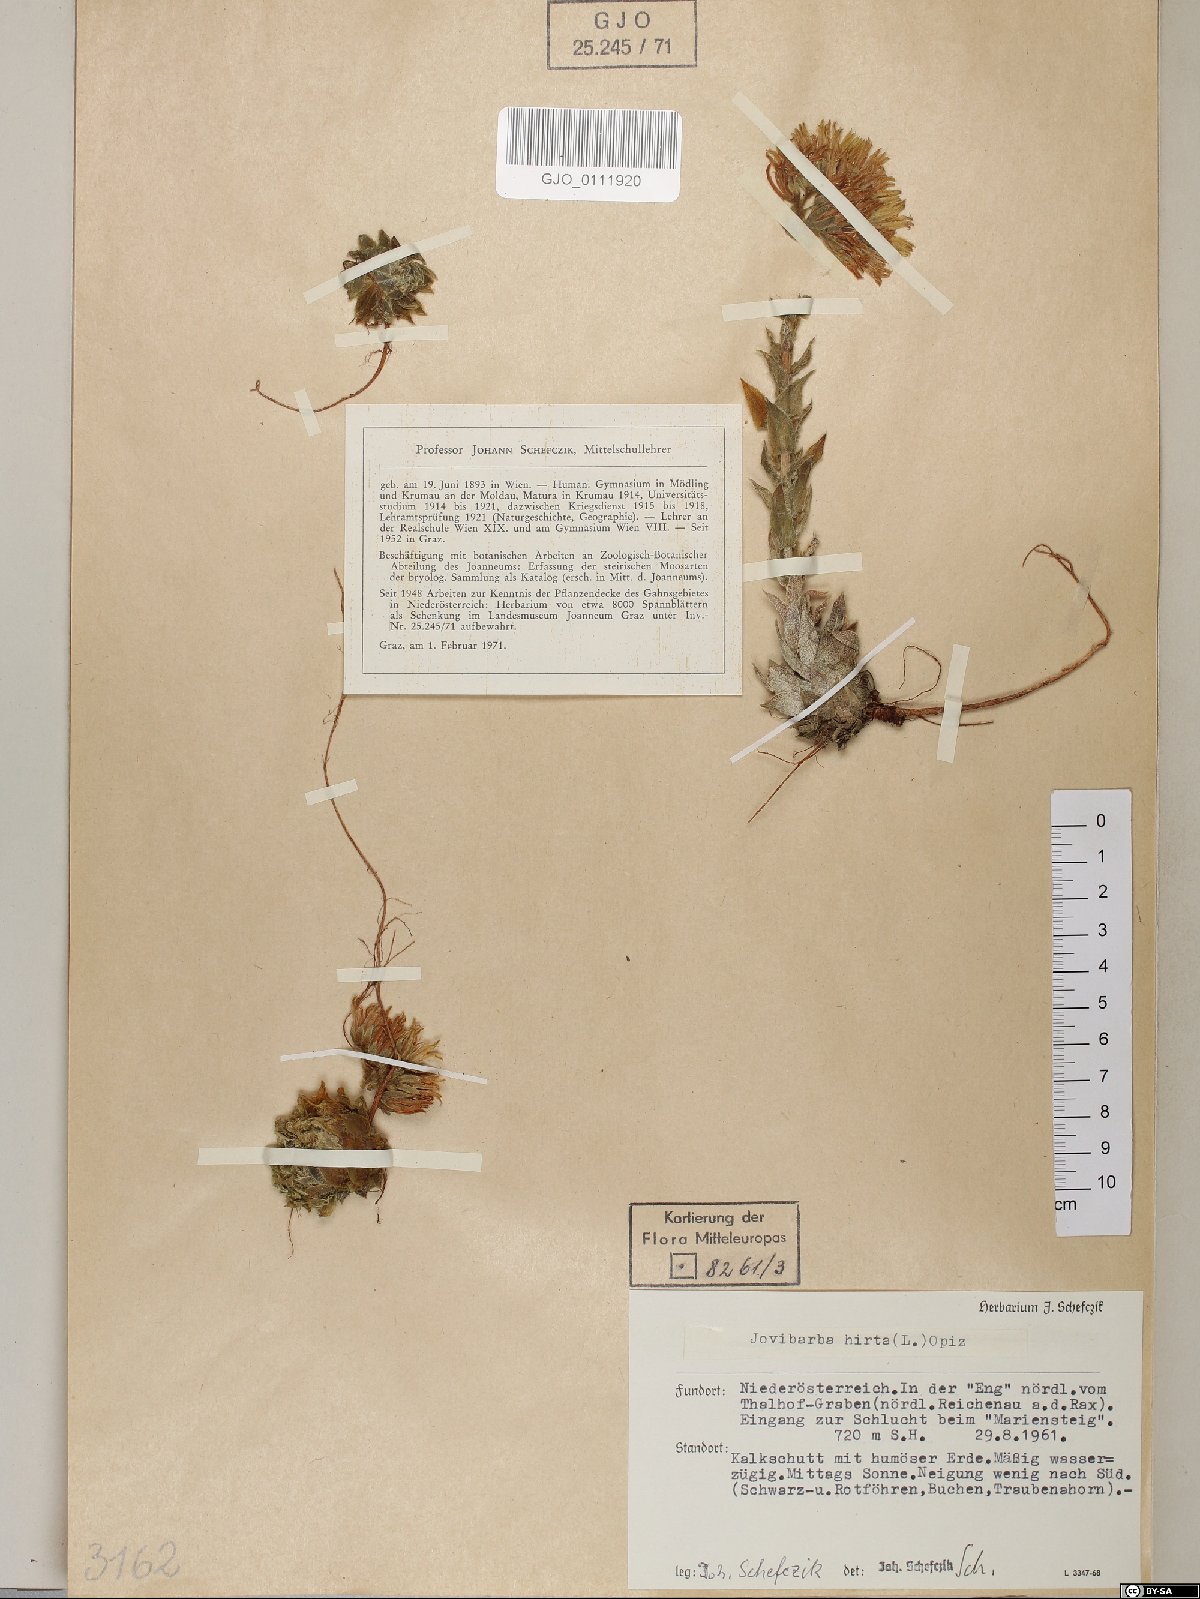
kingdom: Plantae
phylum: Tracheophyta
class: Magnoliopsida
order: Saxifragales
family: Crassulaceae
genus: Sempervivum
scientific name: Sempervivum globiferum
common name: Rolling hen-and-chicks
